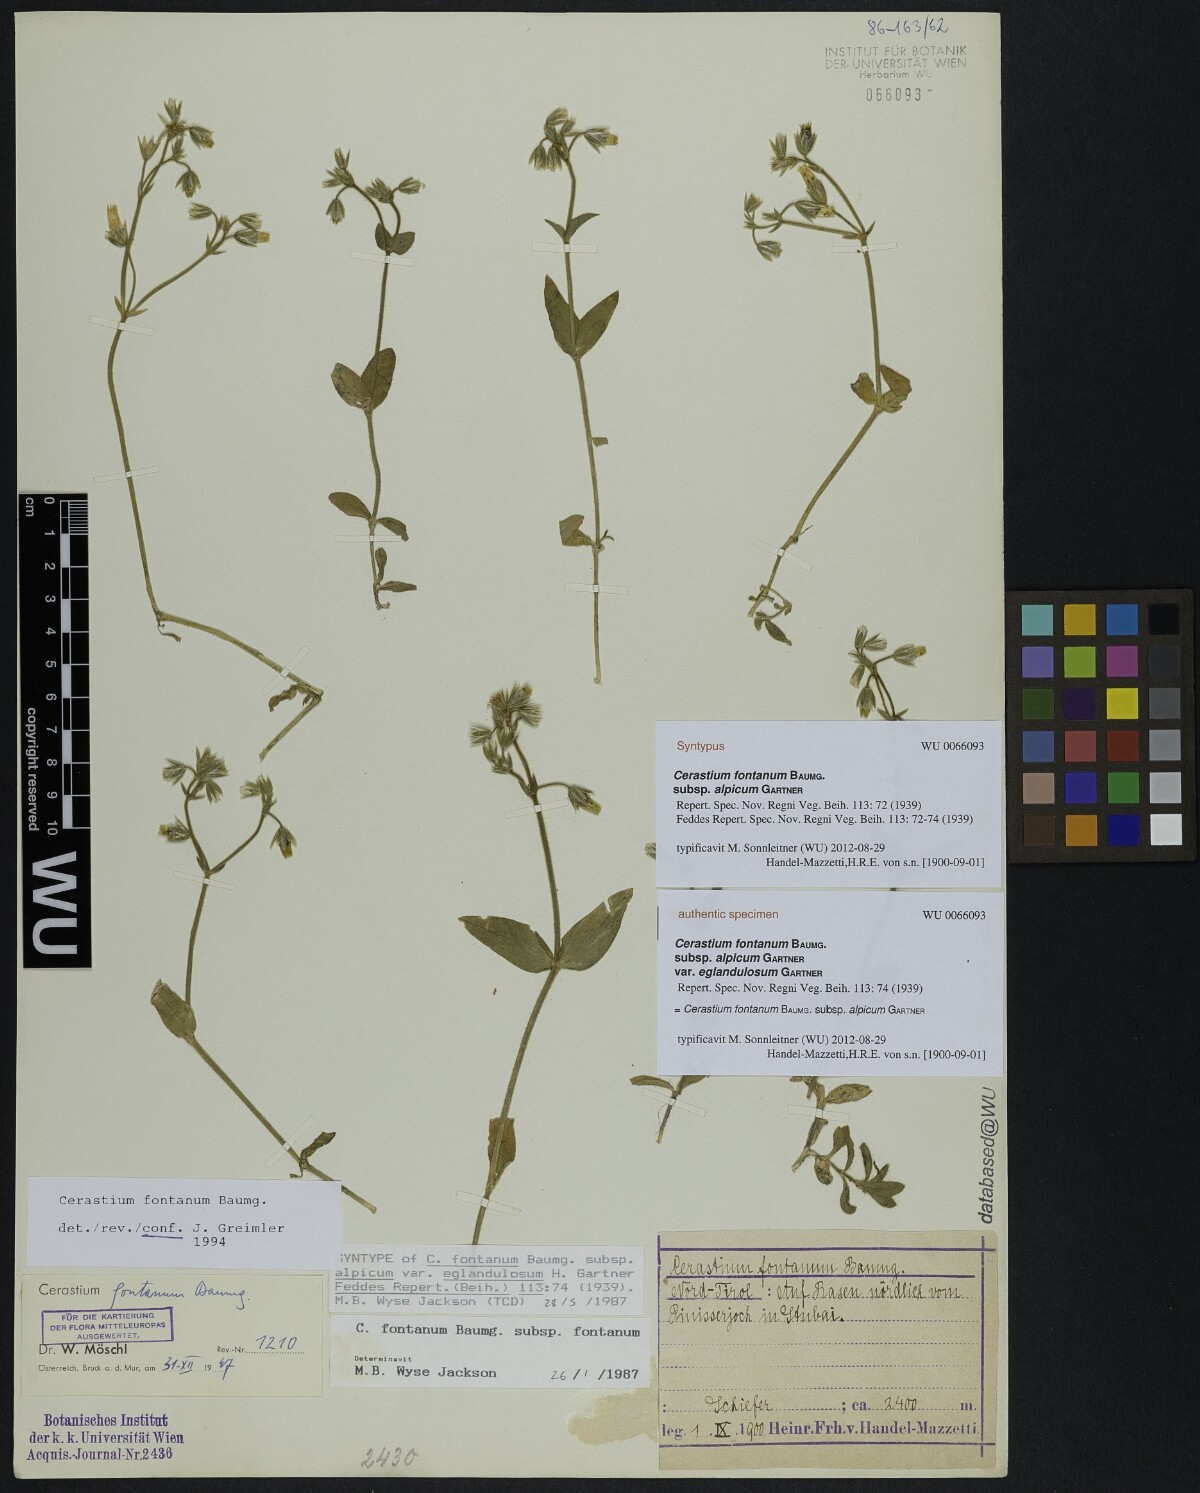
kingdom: Plantae
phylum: Tracheophyta
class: Magnoliopsida
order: Caryophyllales
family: Caryophyllaceae
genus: Cerastium
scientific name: Cerastium fontanum
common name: Common mouse-ear
